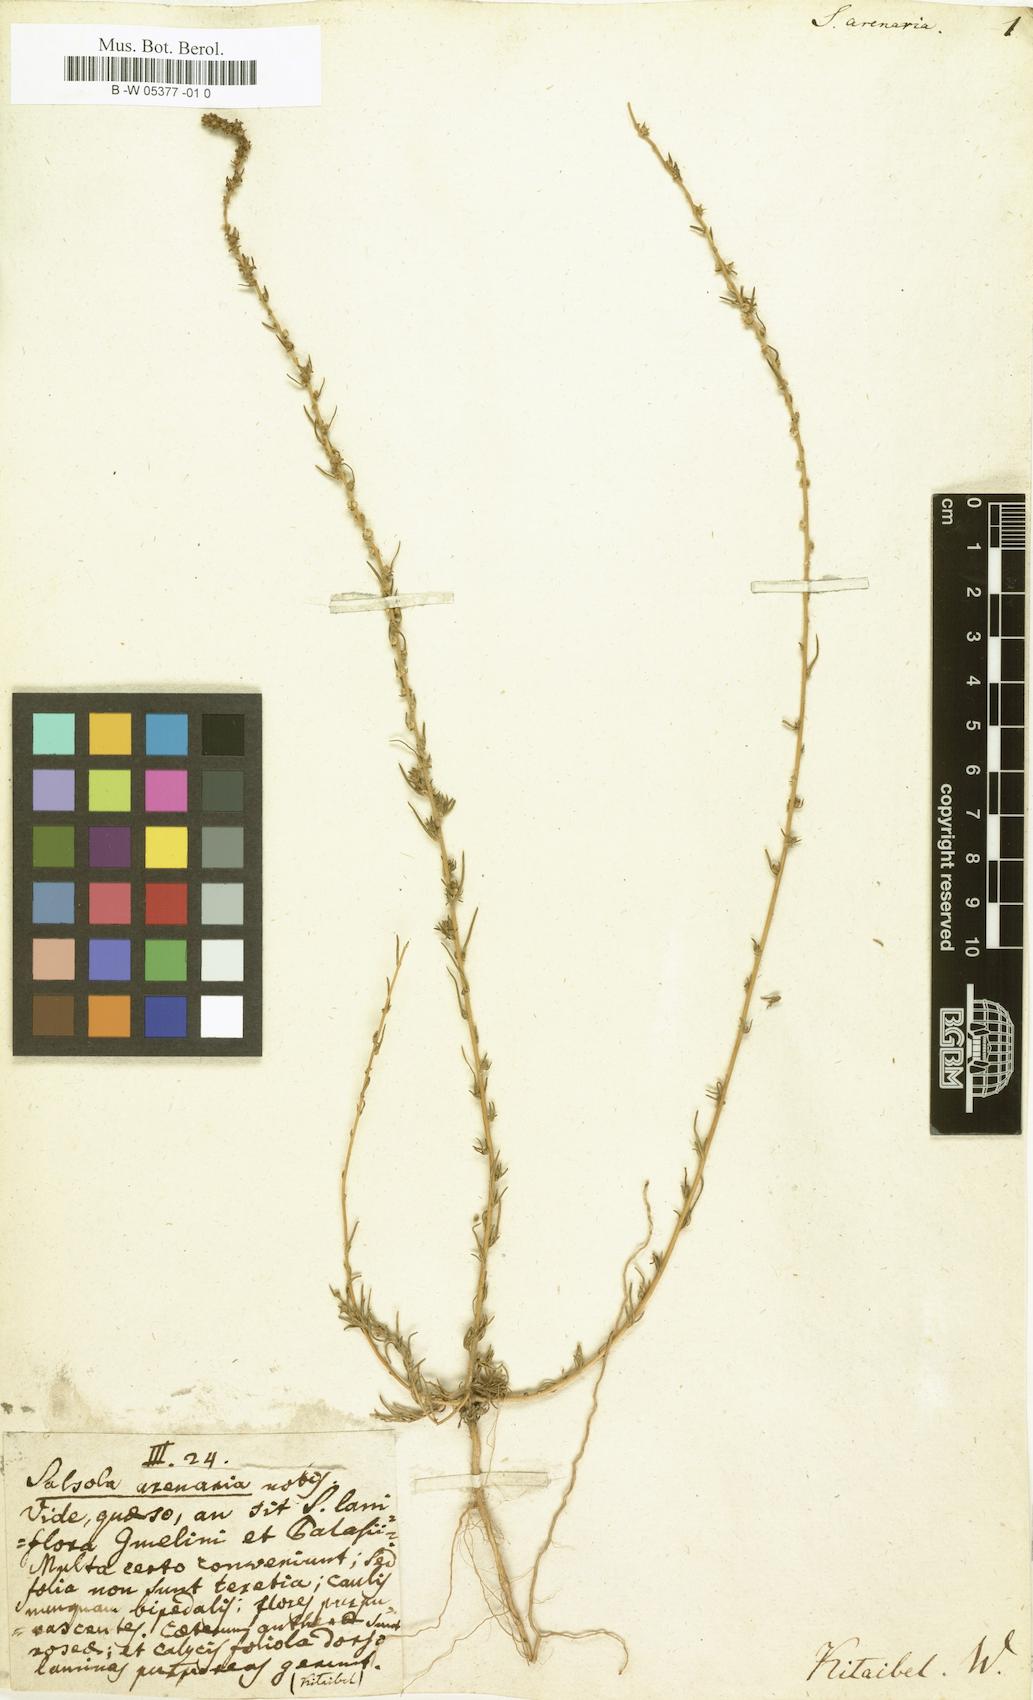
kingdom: Plantae
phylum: Tracheophyta
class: Magnoliopsida
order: Caryophyllales
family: Amaranthaceae
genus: Bassia
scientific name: Bassia laniflora
